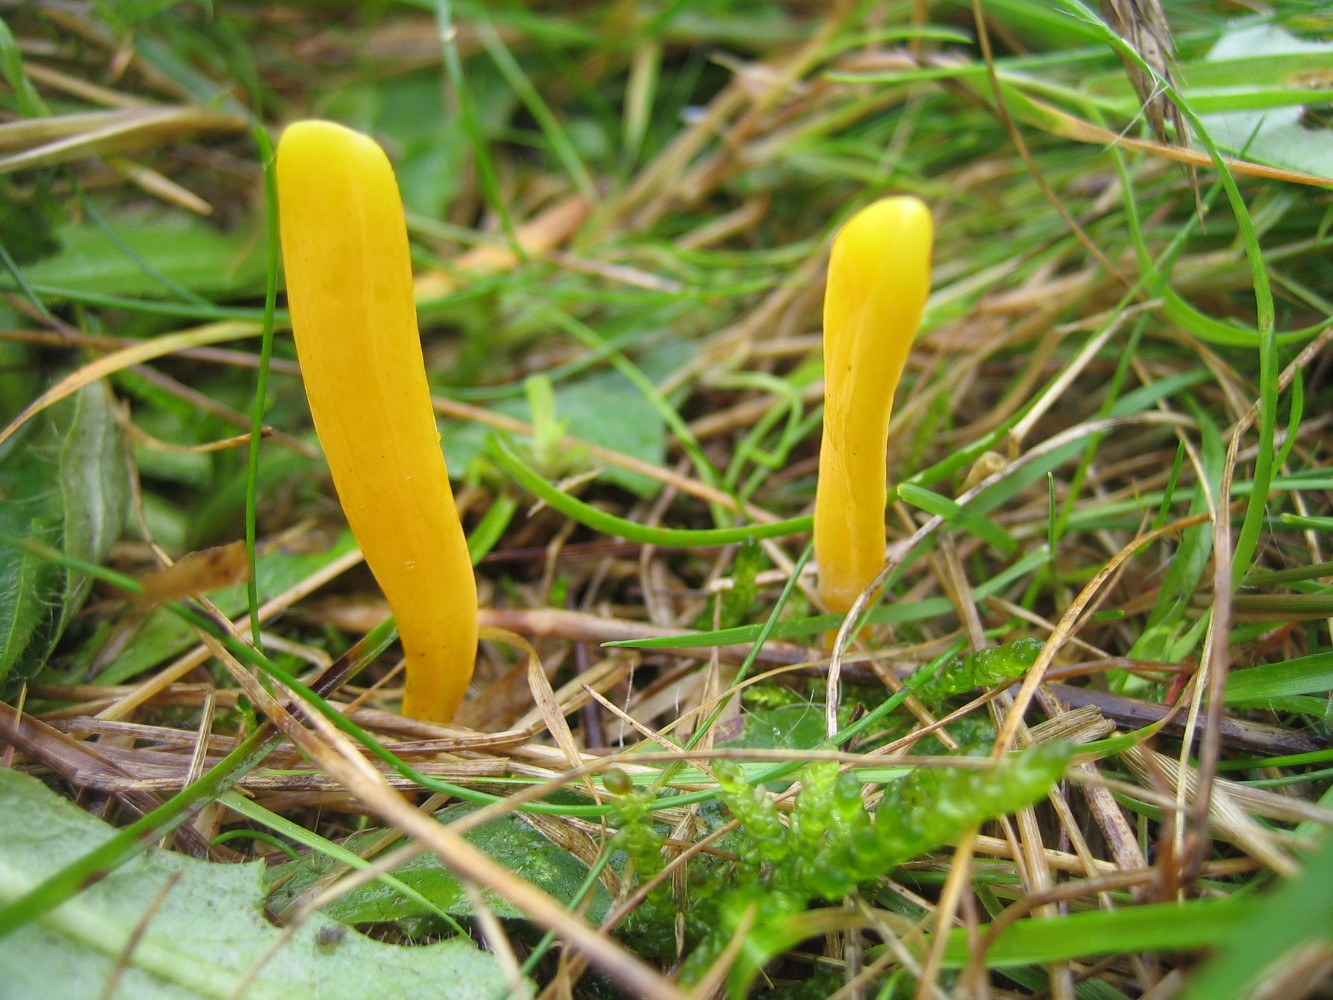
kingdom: Fungi
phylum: Basidiomycota
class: Agaricomycetes
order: Agaricales
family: Clavariaceae
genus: Clavulinopsis
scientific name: Clavulinopsis
